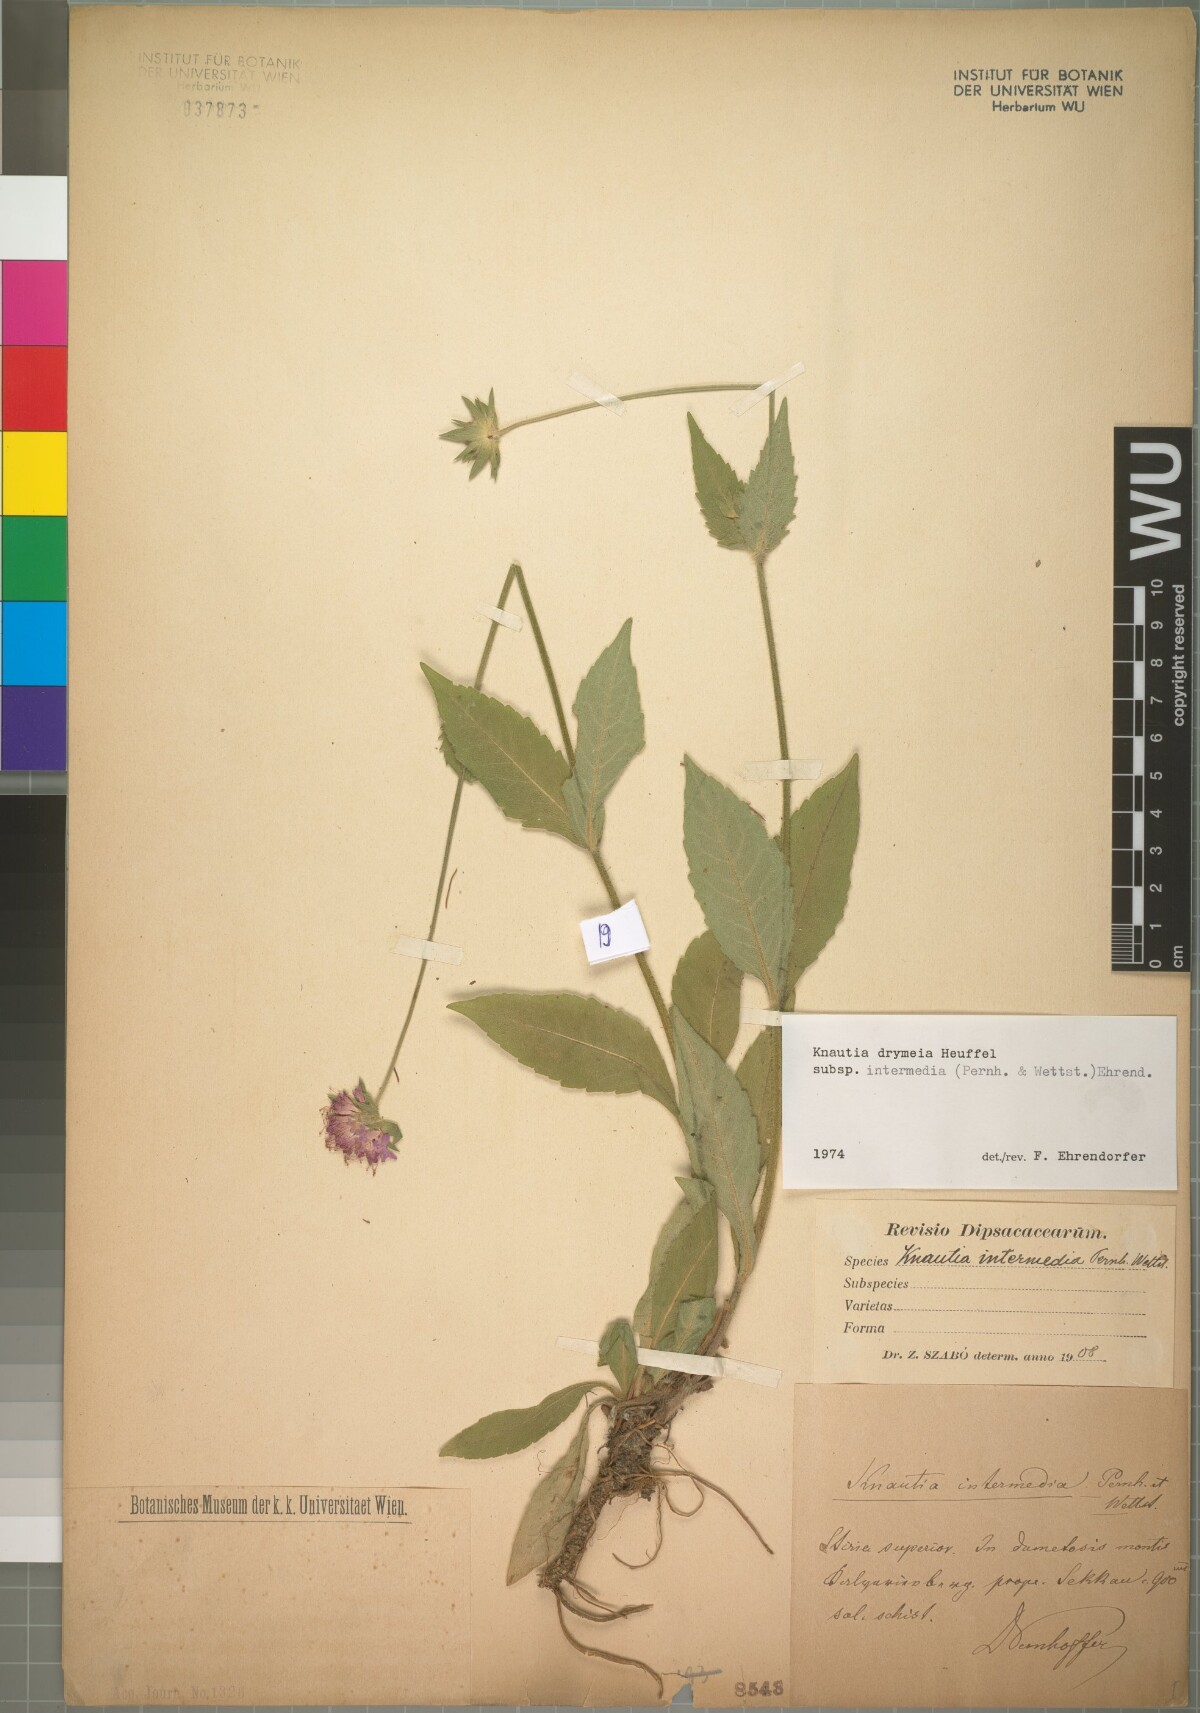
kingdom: Plantae
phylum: Tracheophyta
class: Magnoliopsida
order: Dipsacales
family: Caprifoliaceae
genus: Knautia
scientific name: Knautia drymeia
